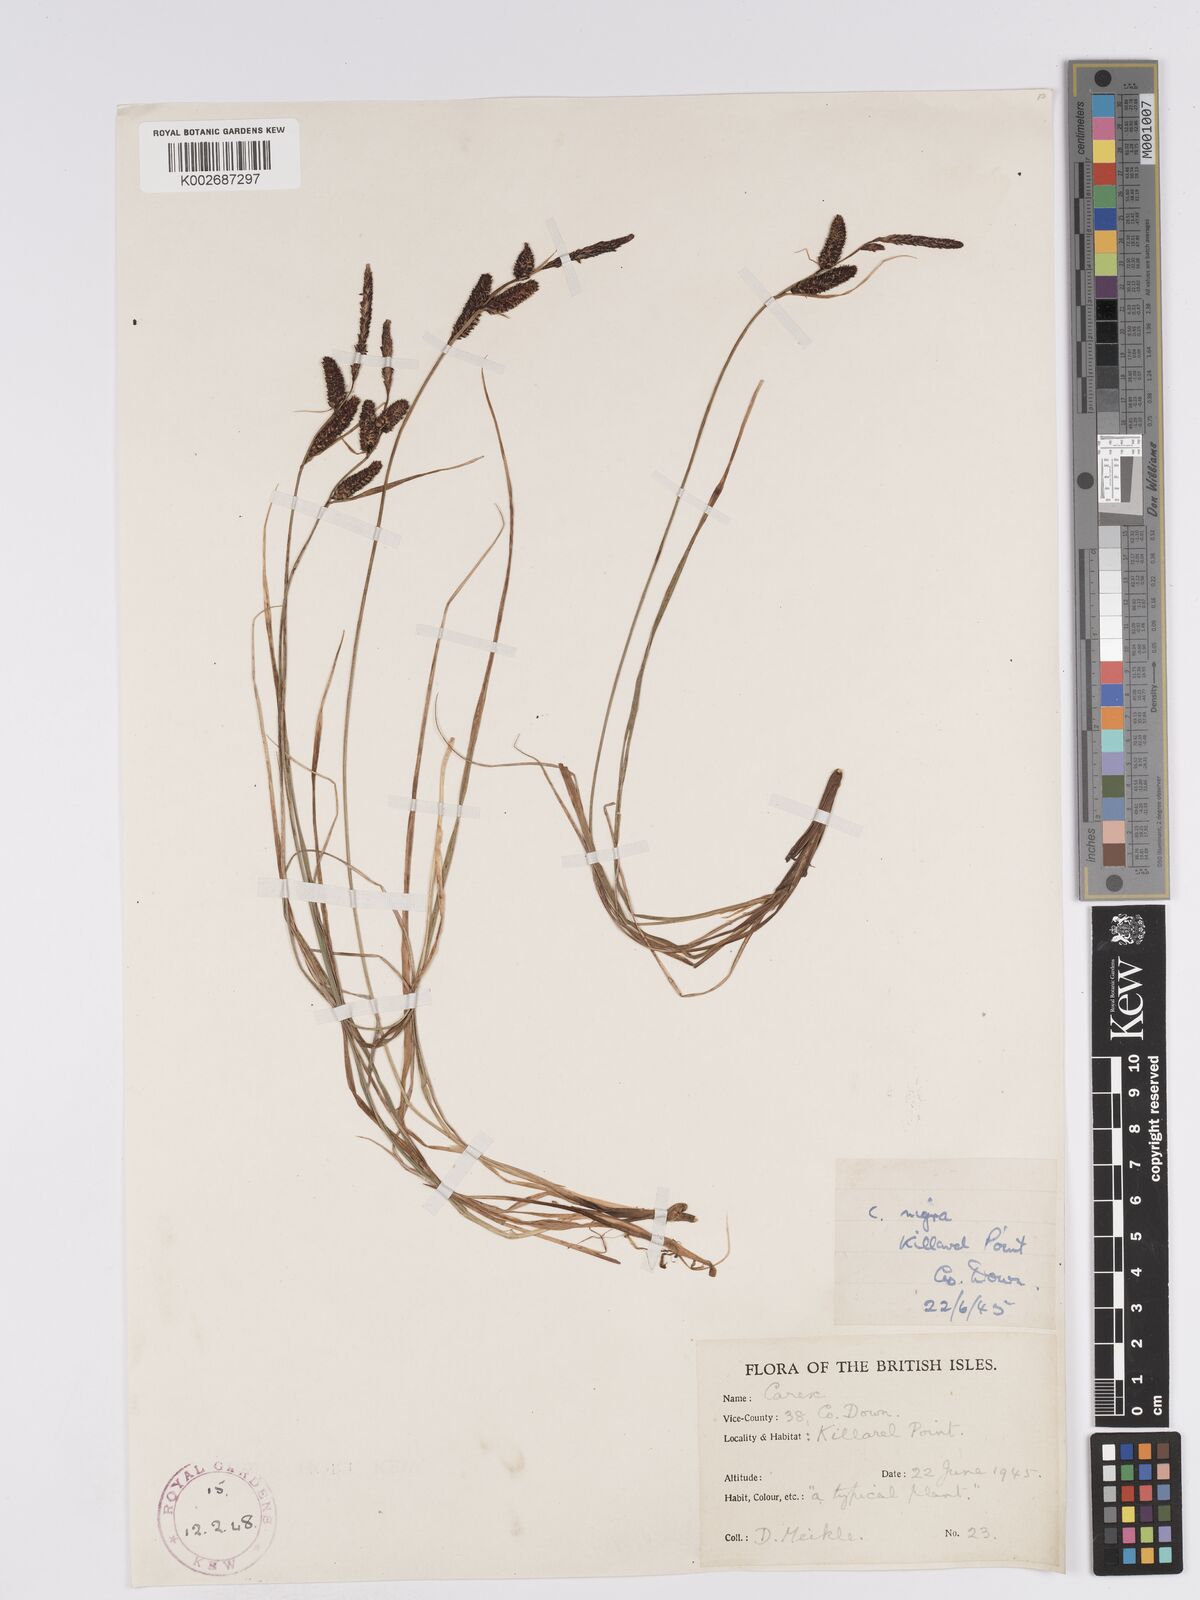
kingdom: Plantae
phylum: Tracheophyta
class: Liliopsida
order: Poales
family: Cyperaceae
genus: Carex
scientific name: Carex nigra
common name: Common sedge
